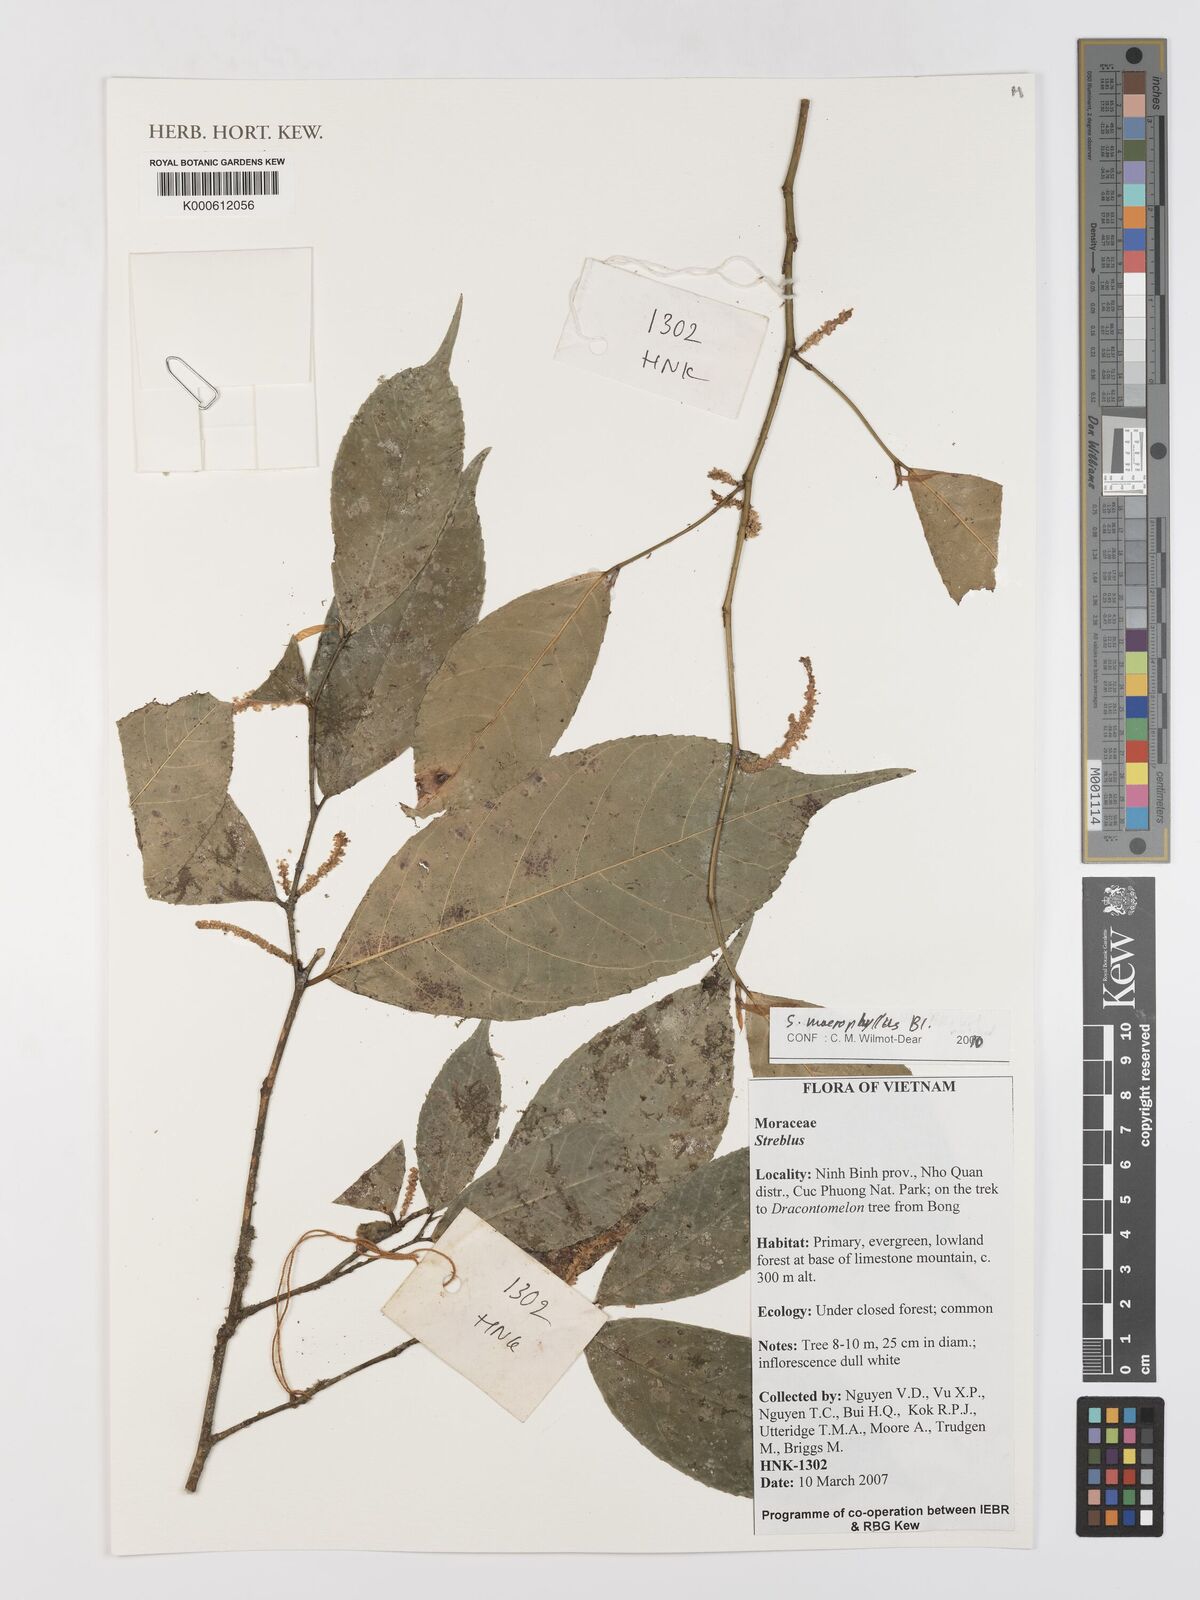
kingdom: Plantae
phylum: Tracheophyta
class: Magnoliopsida
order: Rosales
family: Moraceae
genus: Taxotrophis
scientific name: Taxotrophis macrophylla
